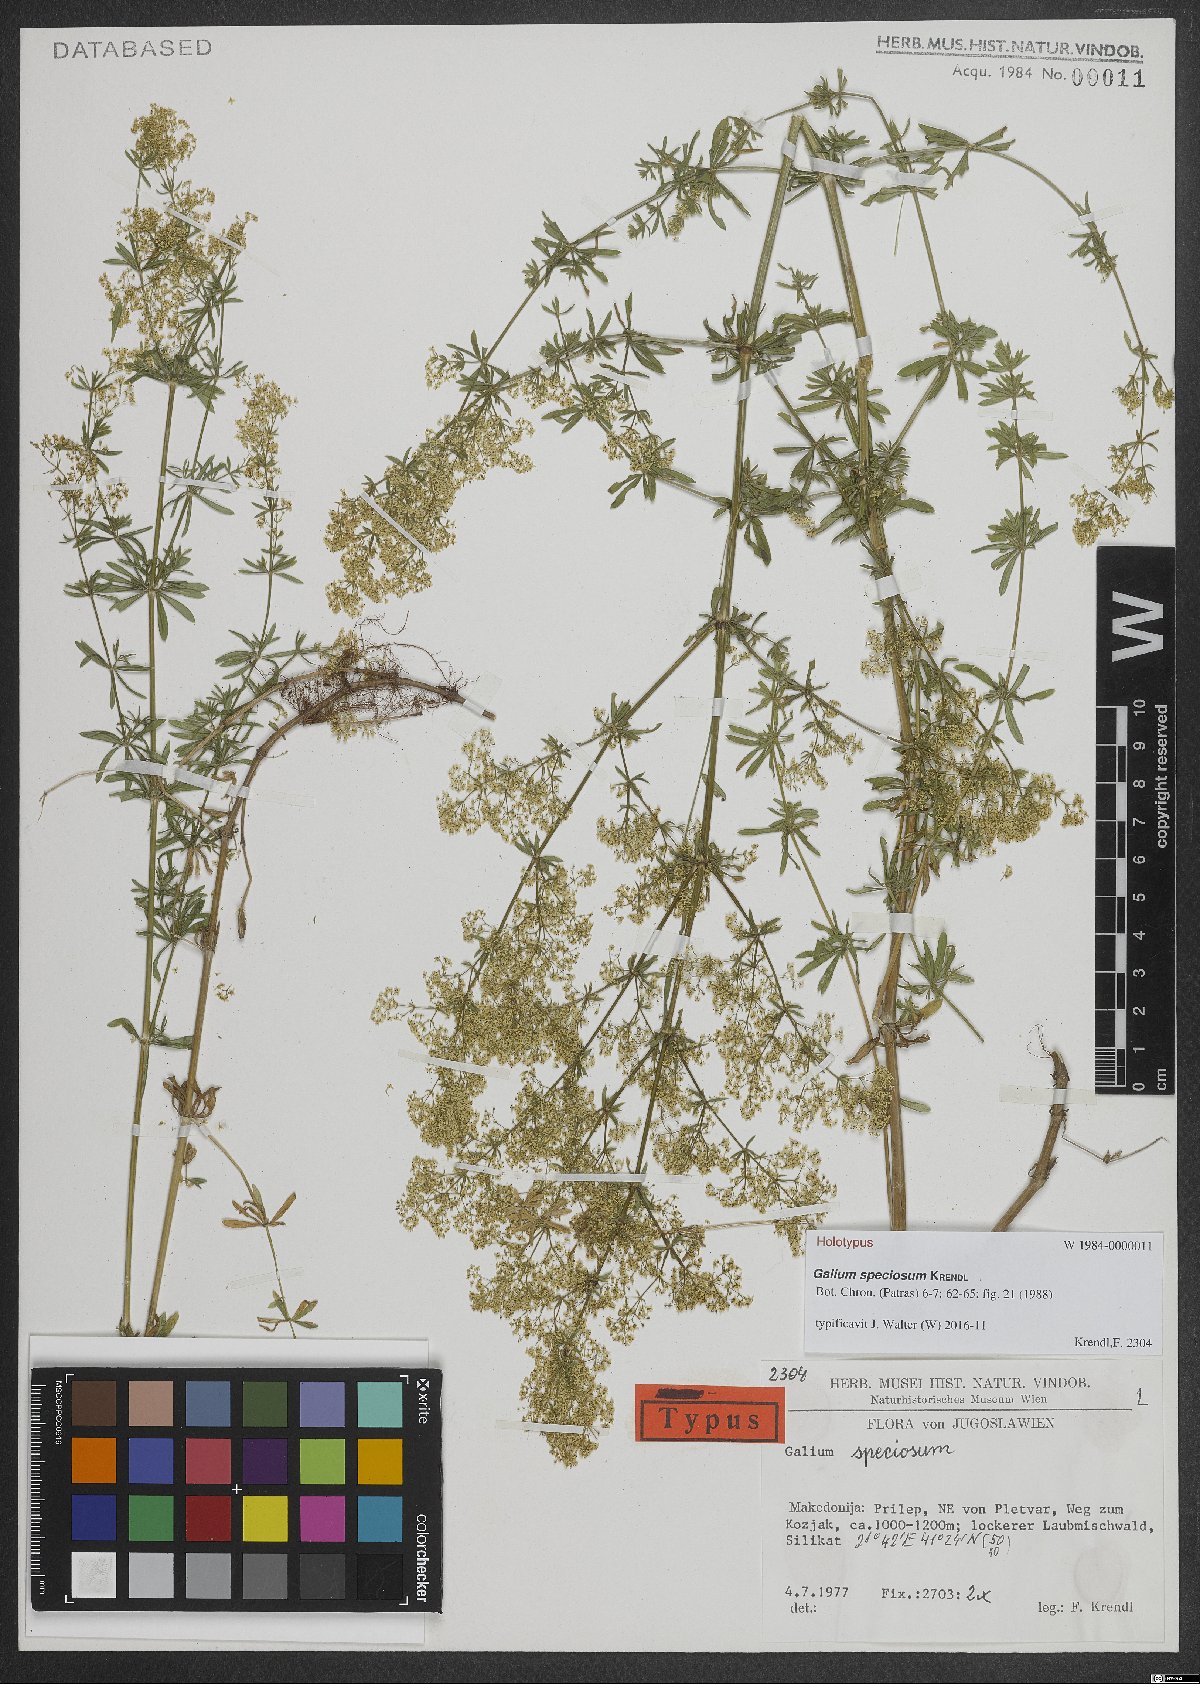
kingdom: Plantae
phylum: Tracheophyta
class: Magnoliopsida
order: Gentianales
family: Rubiaceae
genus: Galium
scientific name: Galium speciosum
